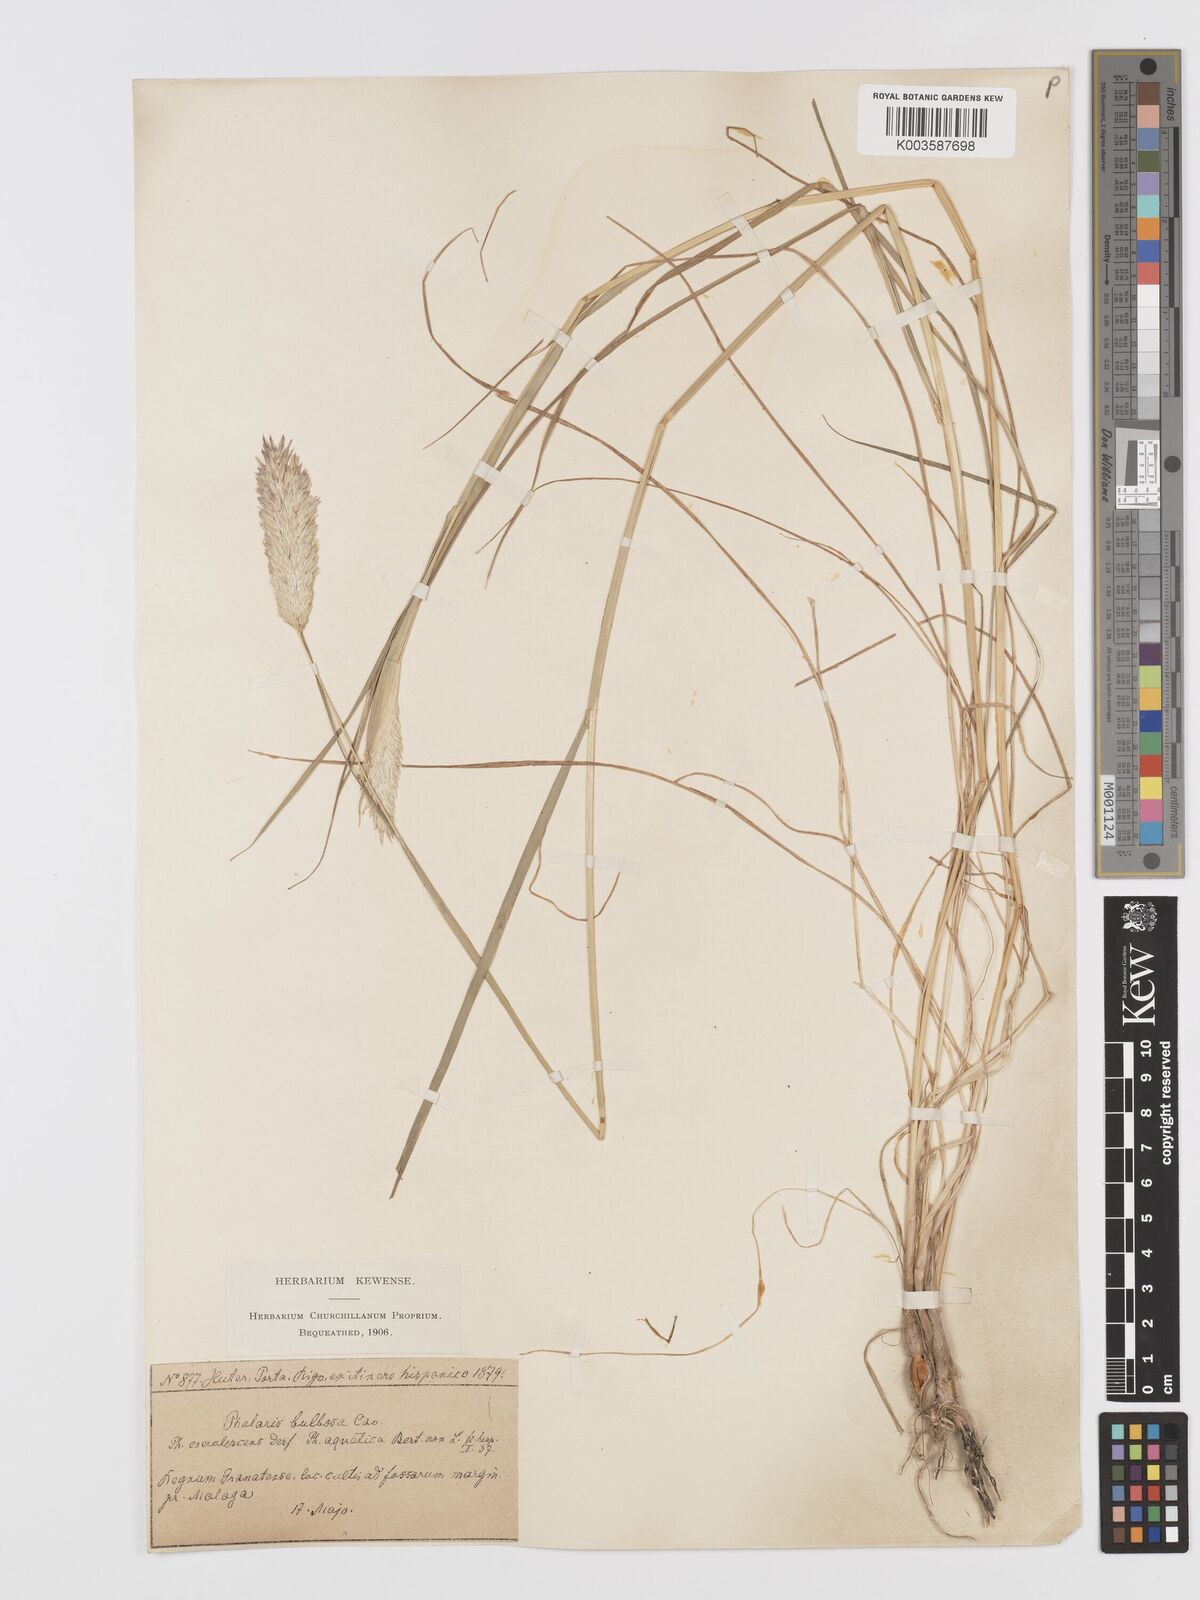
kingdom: Plantae
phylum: Tracheophyta
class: Liliopsida
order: Poales
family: Poaceae
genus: Phalaris
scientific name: Phalaris coerulescens
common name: Sunolgrass
